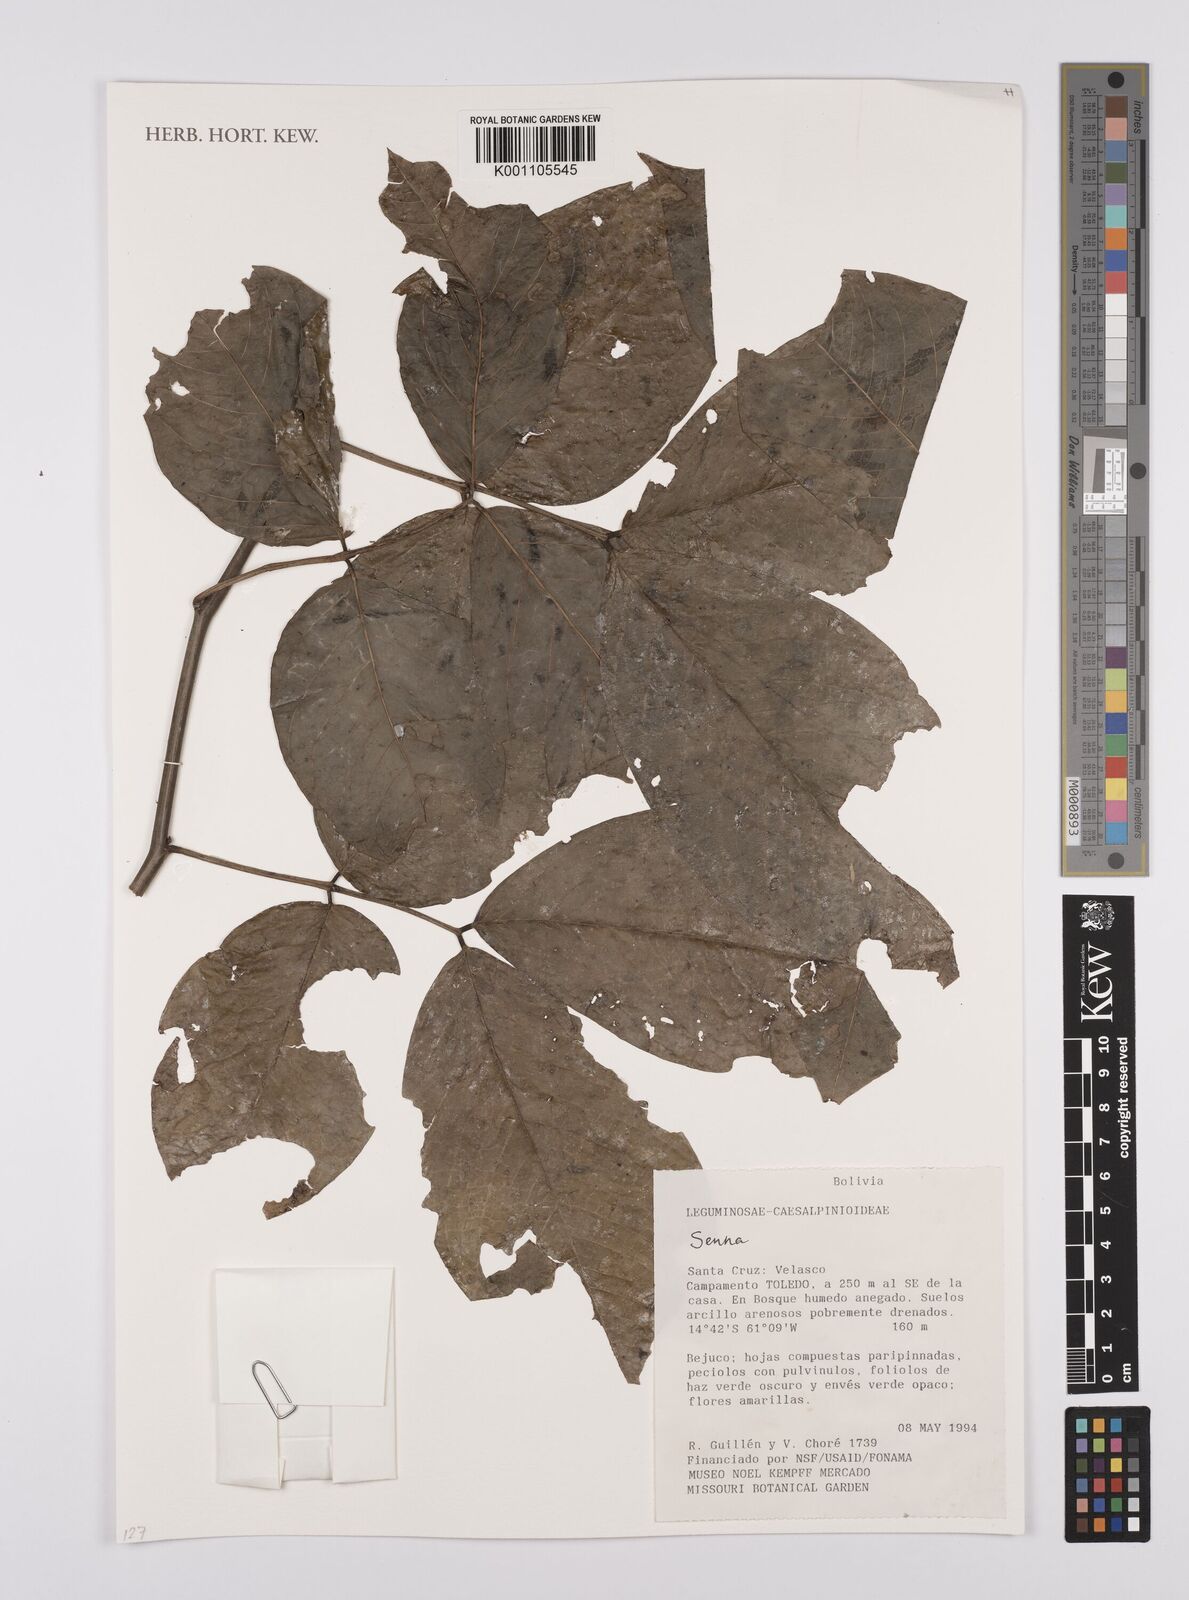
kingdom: Plantae
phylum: Tracheophyta
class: Magnoliopsida
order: Fabales
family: Fabaceae
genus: Senna
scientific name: Senna
